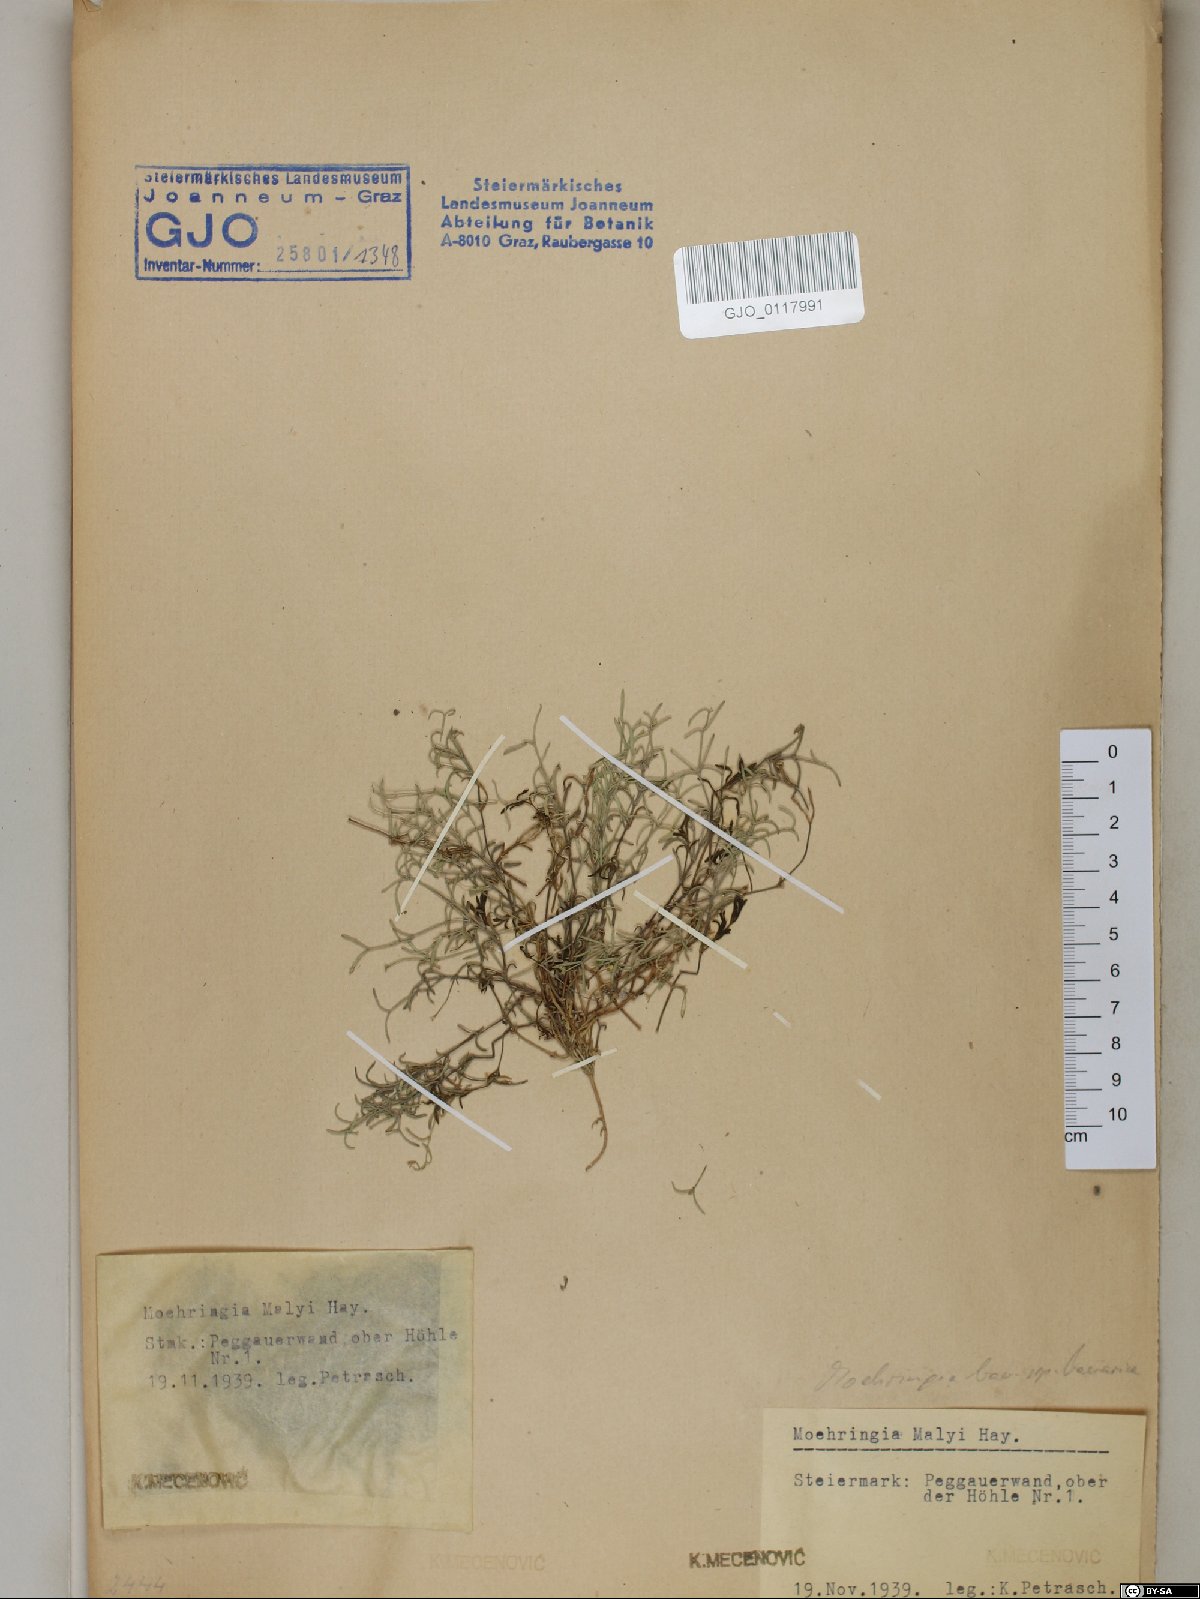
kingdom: Plantae
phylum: Tracheophyta
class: Magnoliopsida
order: Caryophyllales
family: Caryophyllaceae
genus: Moehringia
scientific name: Moehringia bavarica
